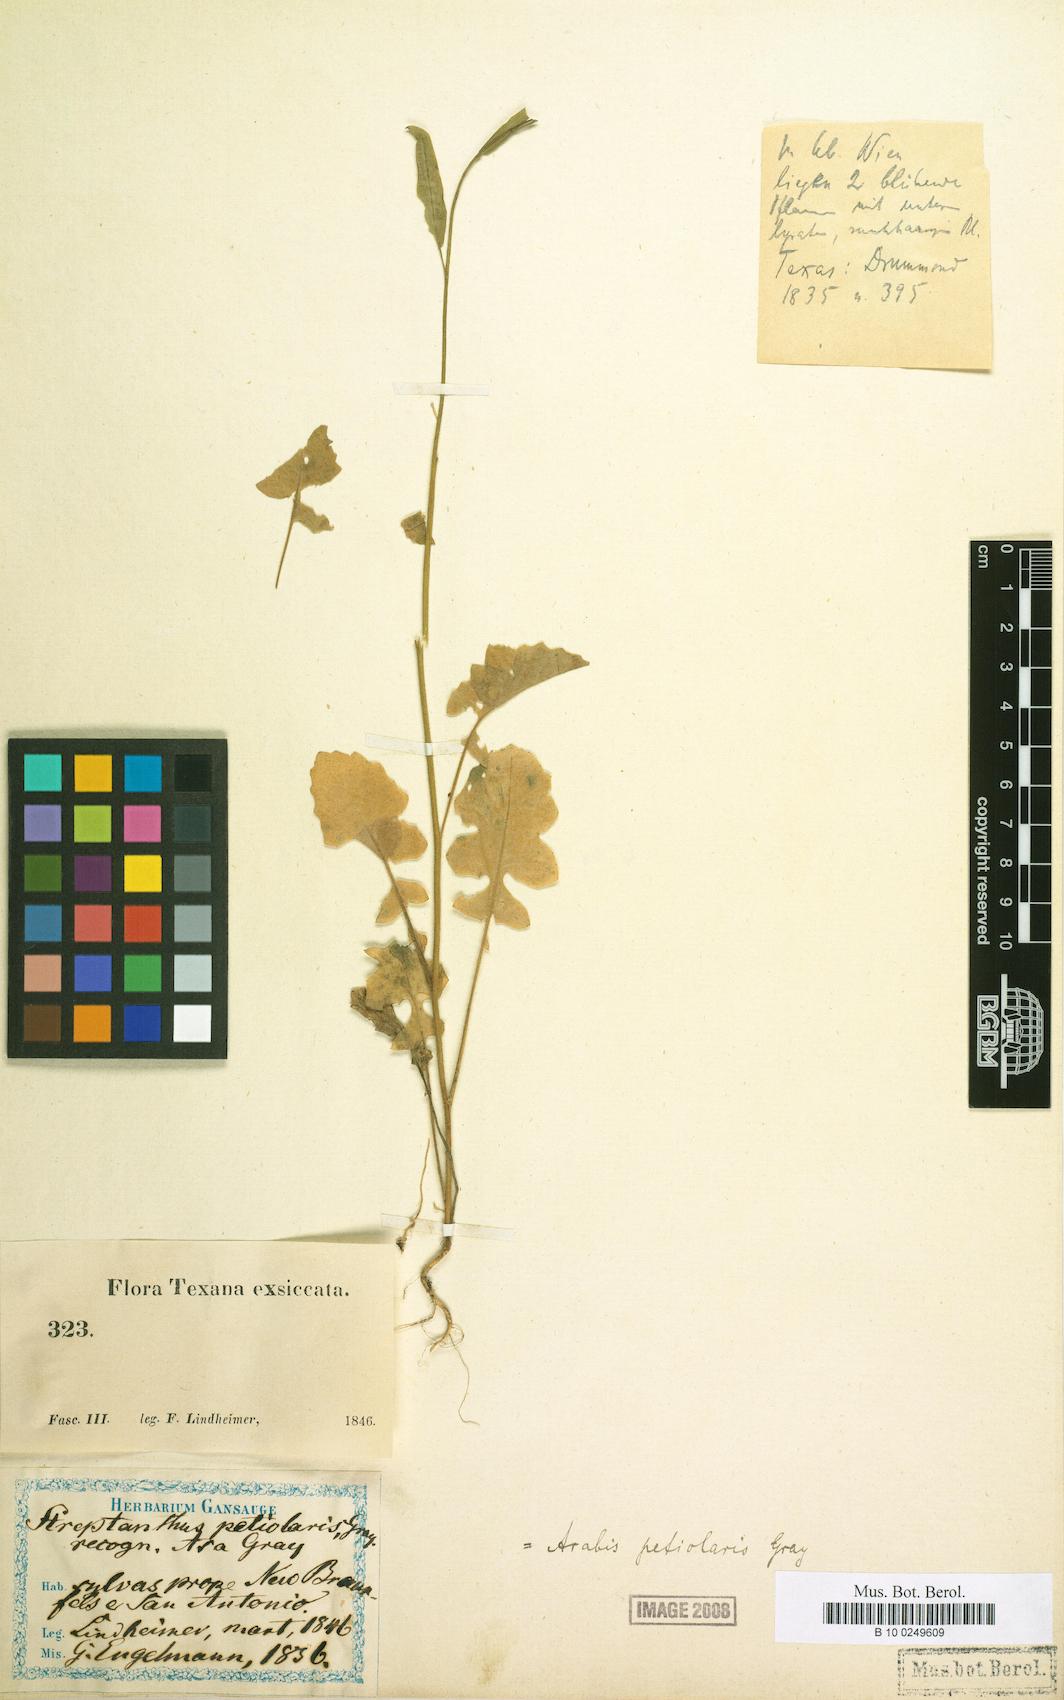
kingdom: Plantae
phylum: Tracheophyta
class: Magnoliopsida
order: Brassicales
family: Brassicaceae
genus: Streptanthus
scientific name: Streptanthus petiolaris
